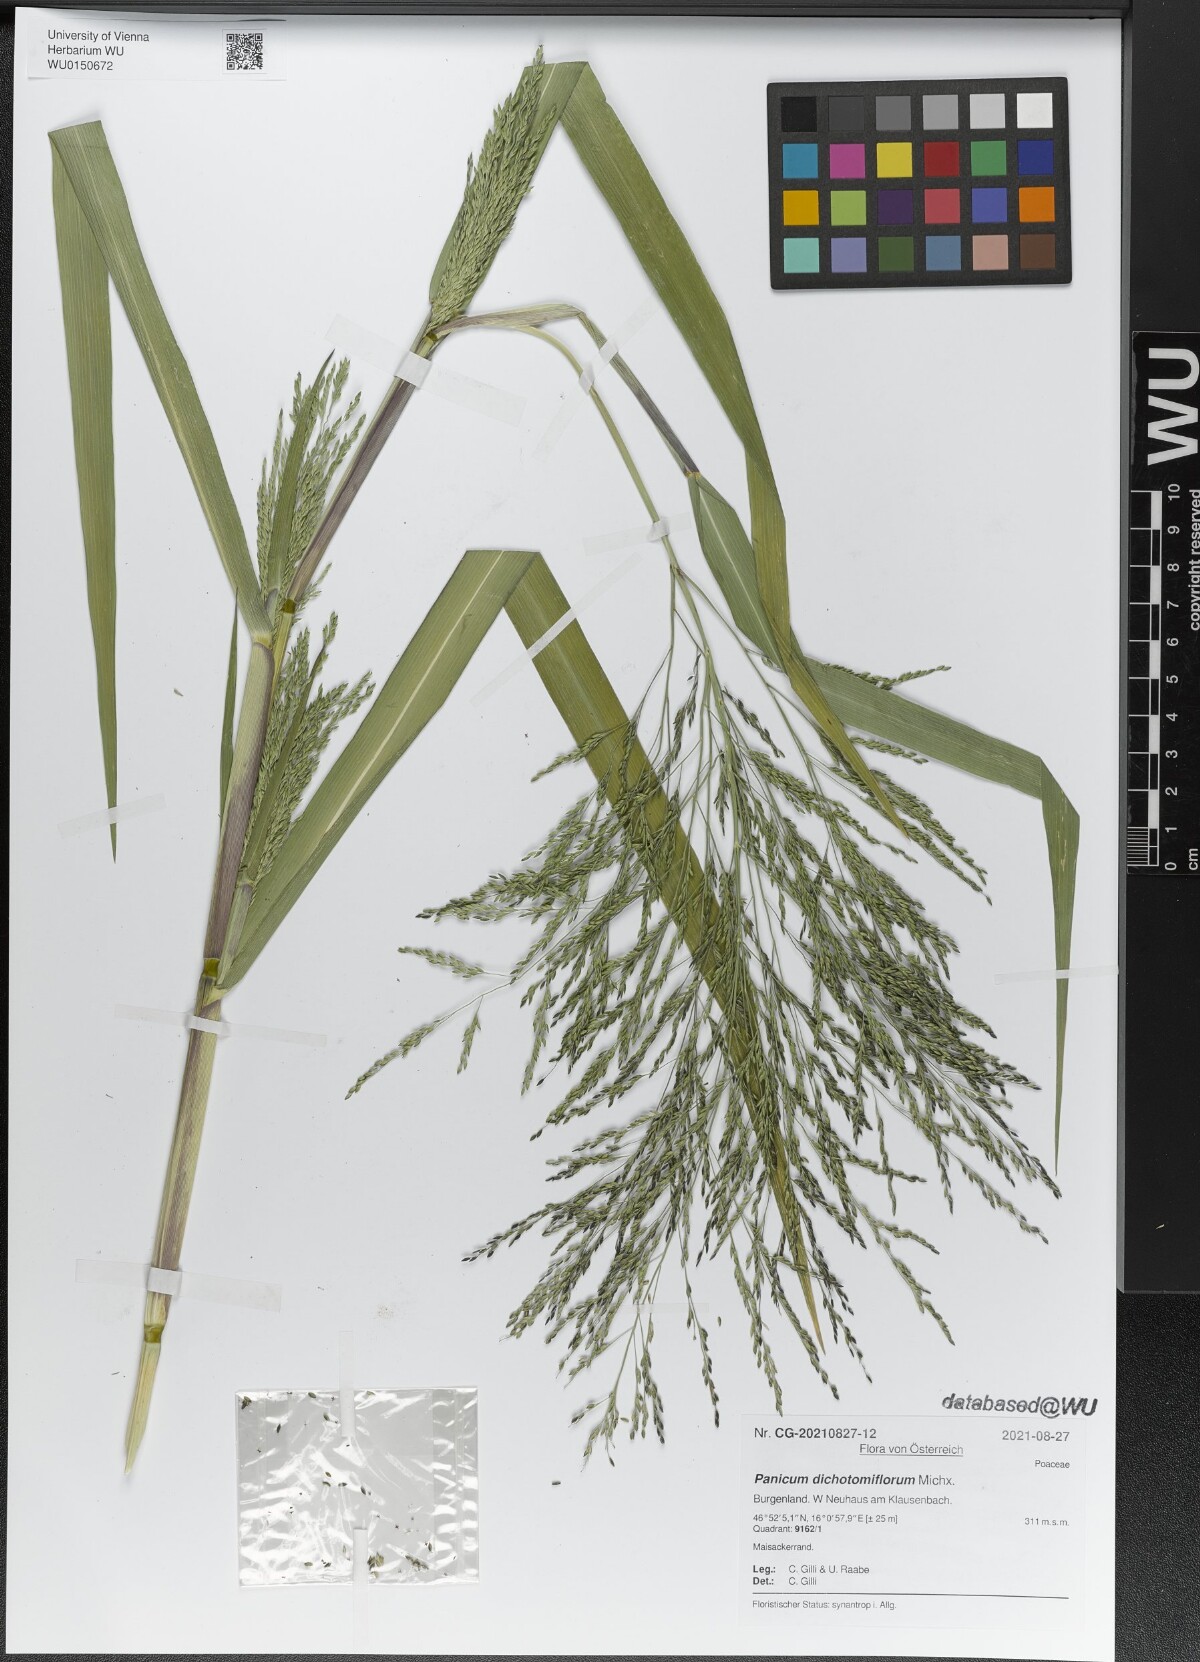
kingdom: Plantae
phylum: Tracheophyta
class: Liliopsida
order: Poales
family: Poaceae
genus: Panicum
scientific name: Panicum dichotomiflorum
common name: Autumn millet
